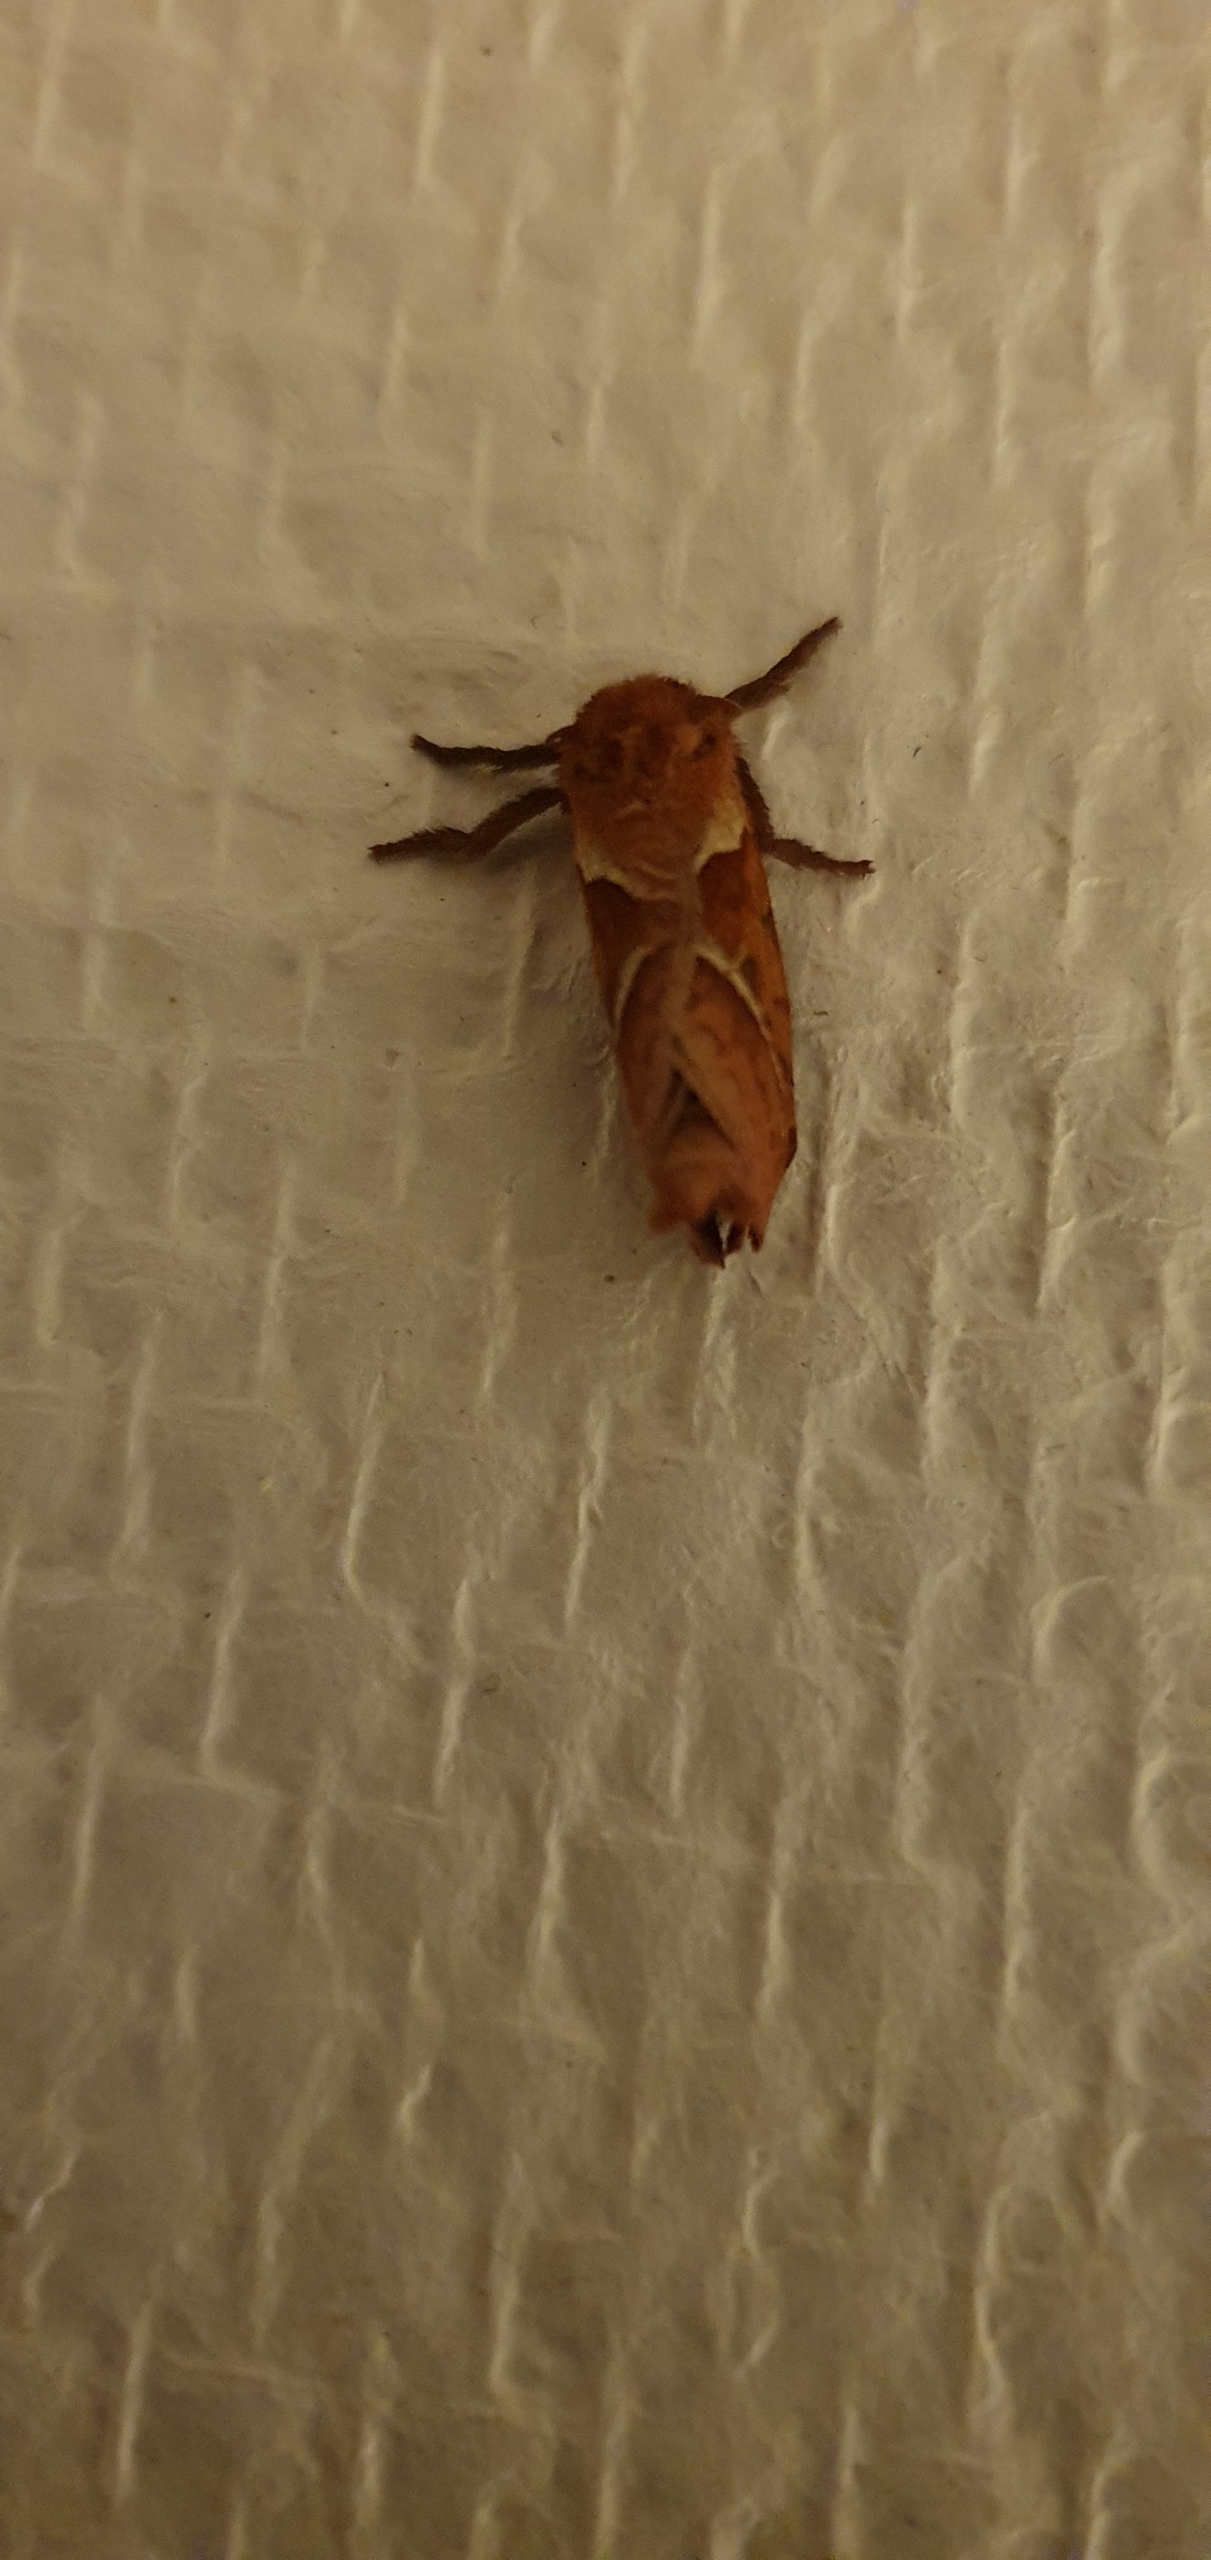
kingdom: Animalia
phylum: Arthropoda
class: Insecta
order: Lepidoptera
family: Hepialidae
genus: Korscheltellus
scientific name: Korscheltellus lupulina
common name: Konvalrodæder
